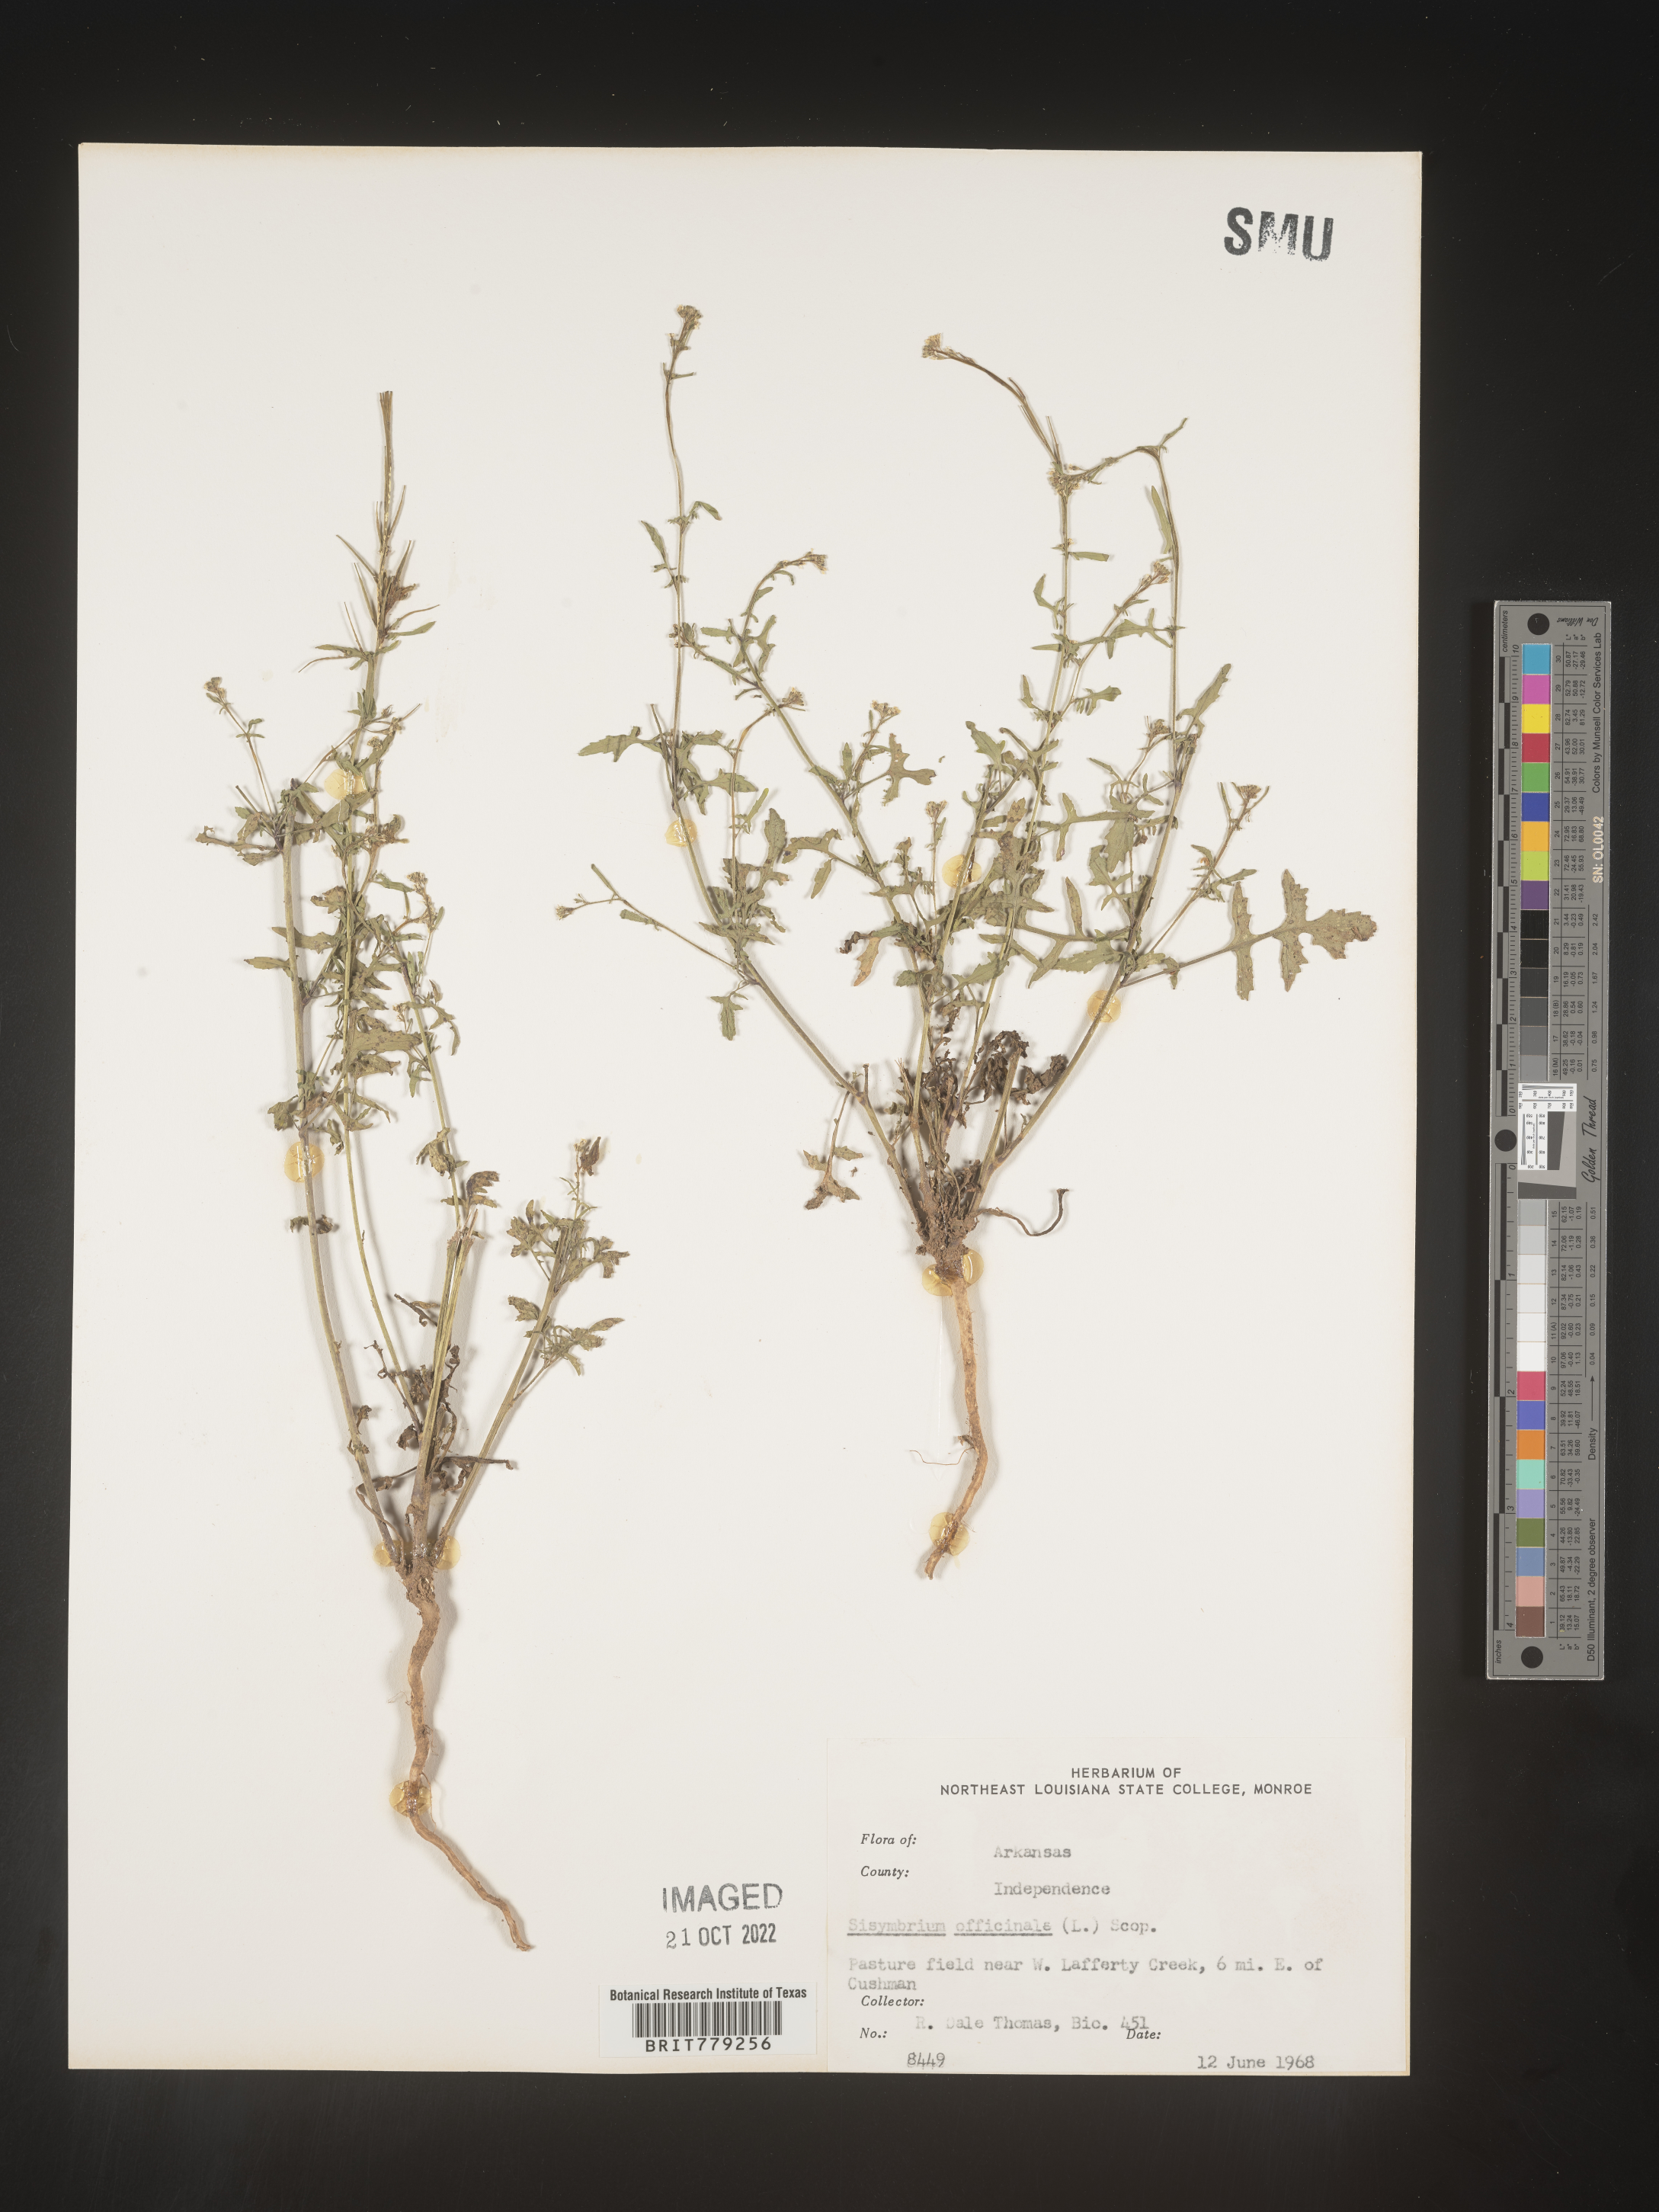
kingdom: Plantae
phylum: Tracheophyta
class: Magnoliopsida
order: Brassicales
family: Brassicaceae
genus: Sisymbrium
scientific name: Sisymbrium officinale
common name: Hedge mustard
